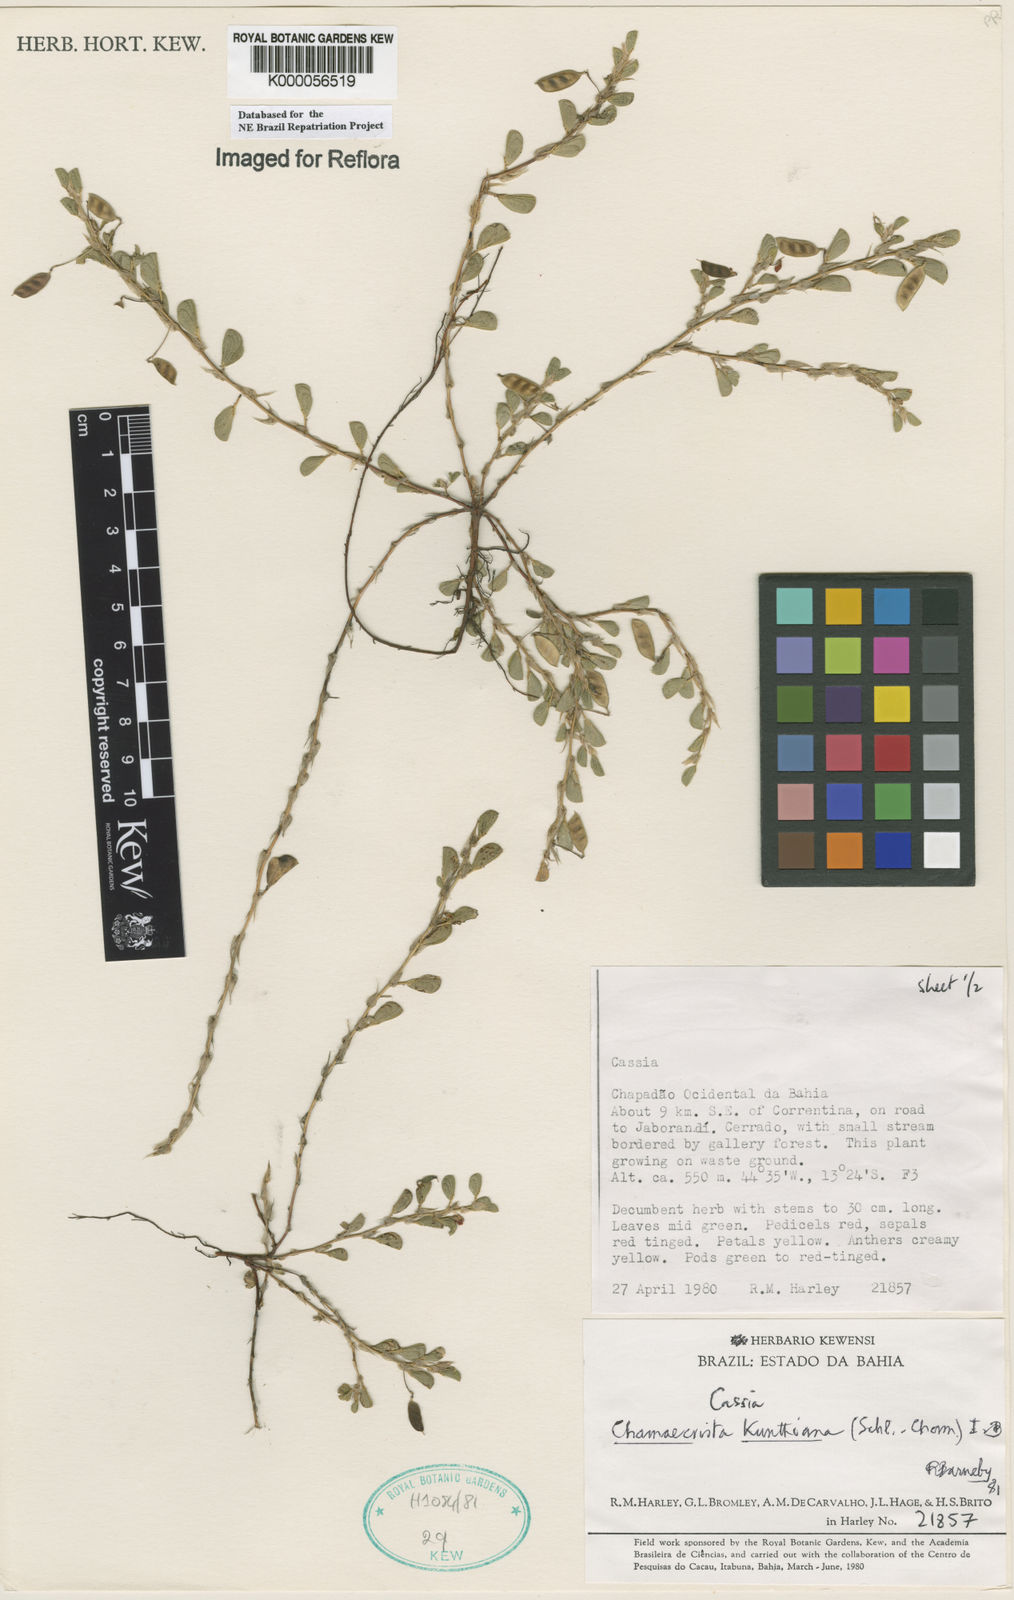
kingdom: Plantae
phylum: Tracheophyta
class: Magnoliopsida
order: Fabales
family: Fabaceae
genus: Chamaecrista
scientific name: Chamaecrista kunthiana
